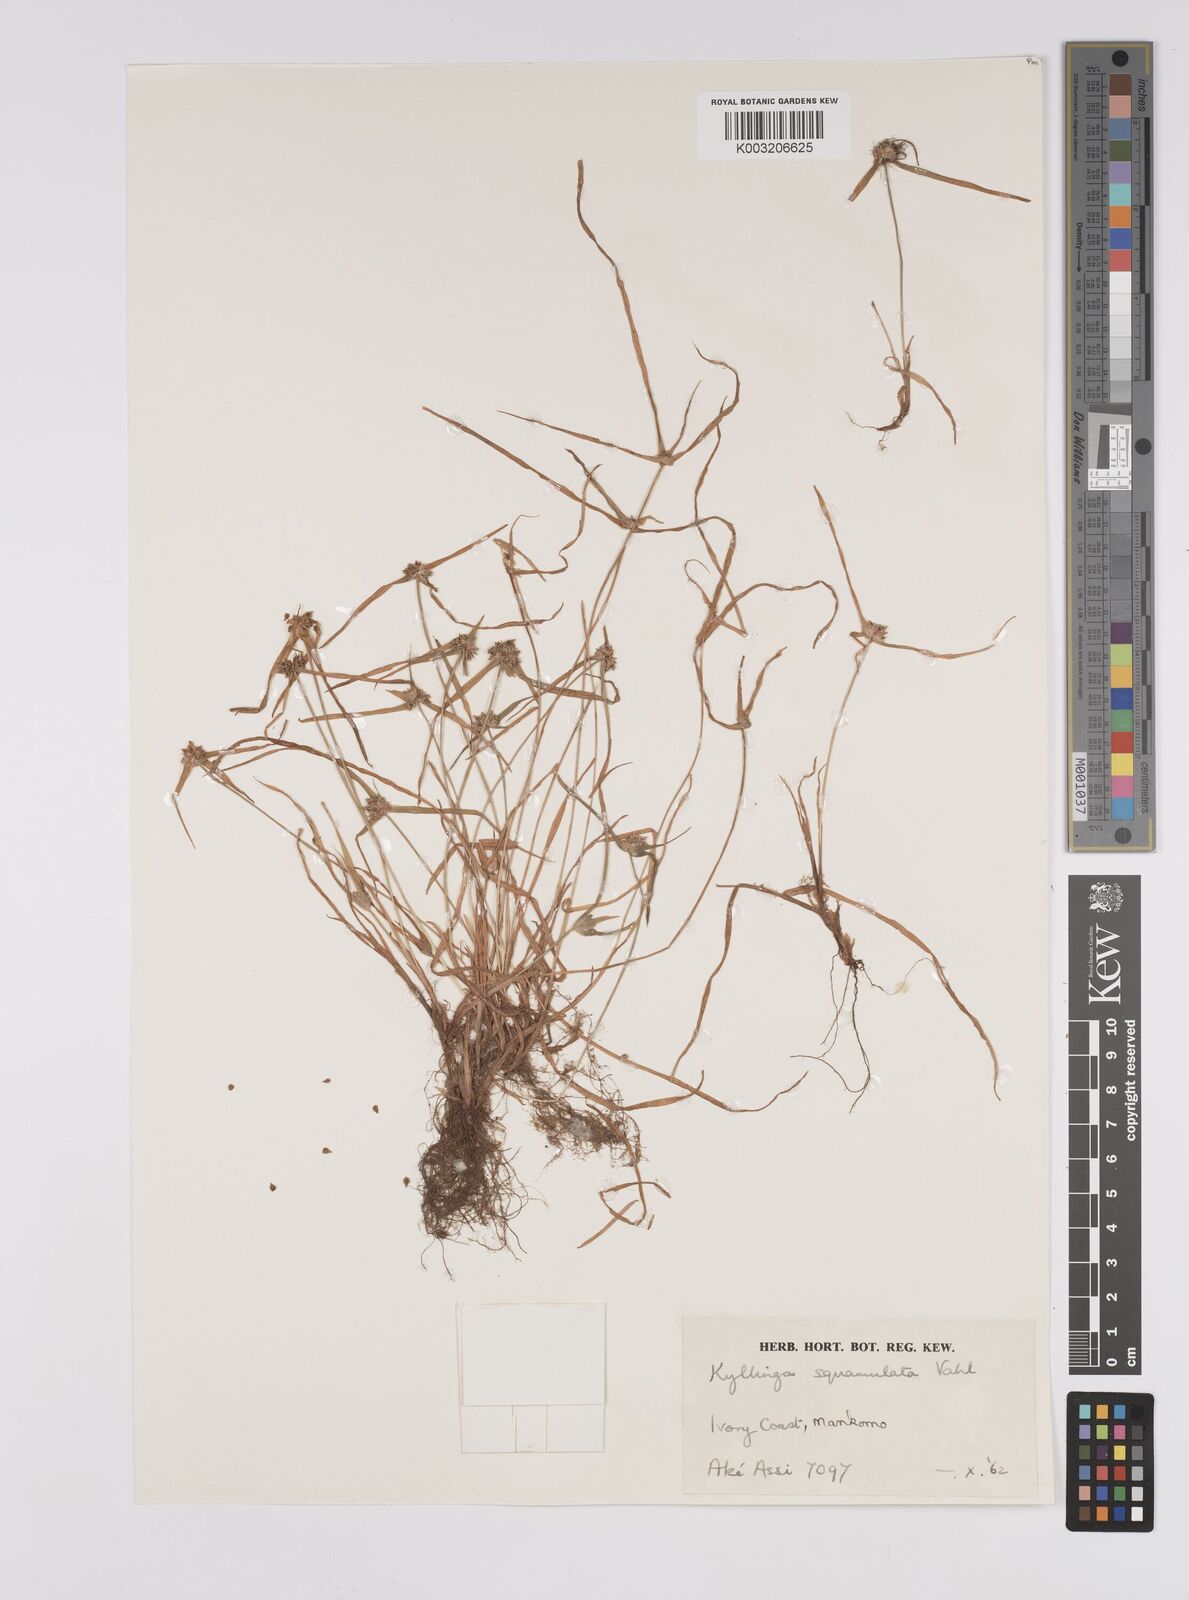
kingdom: Plantae
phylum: Tracheophyta
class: Liliopsida
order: Poales
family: Cyperaceae
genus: Cyperus
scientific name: Cyperus distans
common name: Slender cyperus
